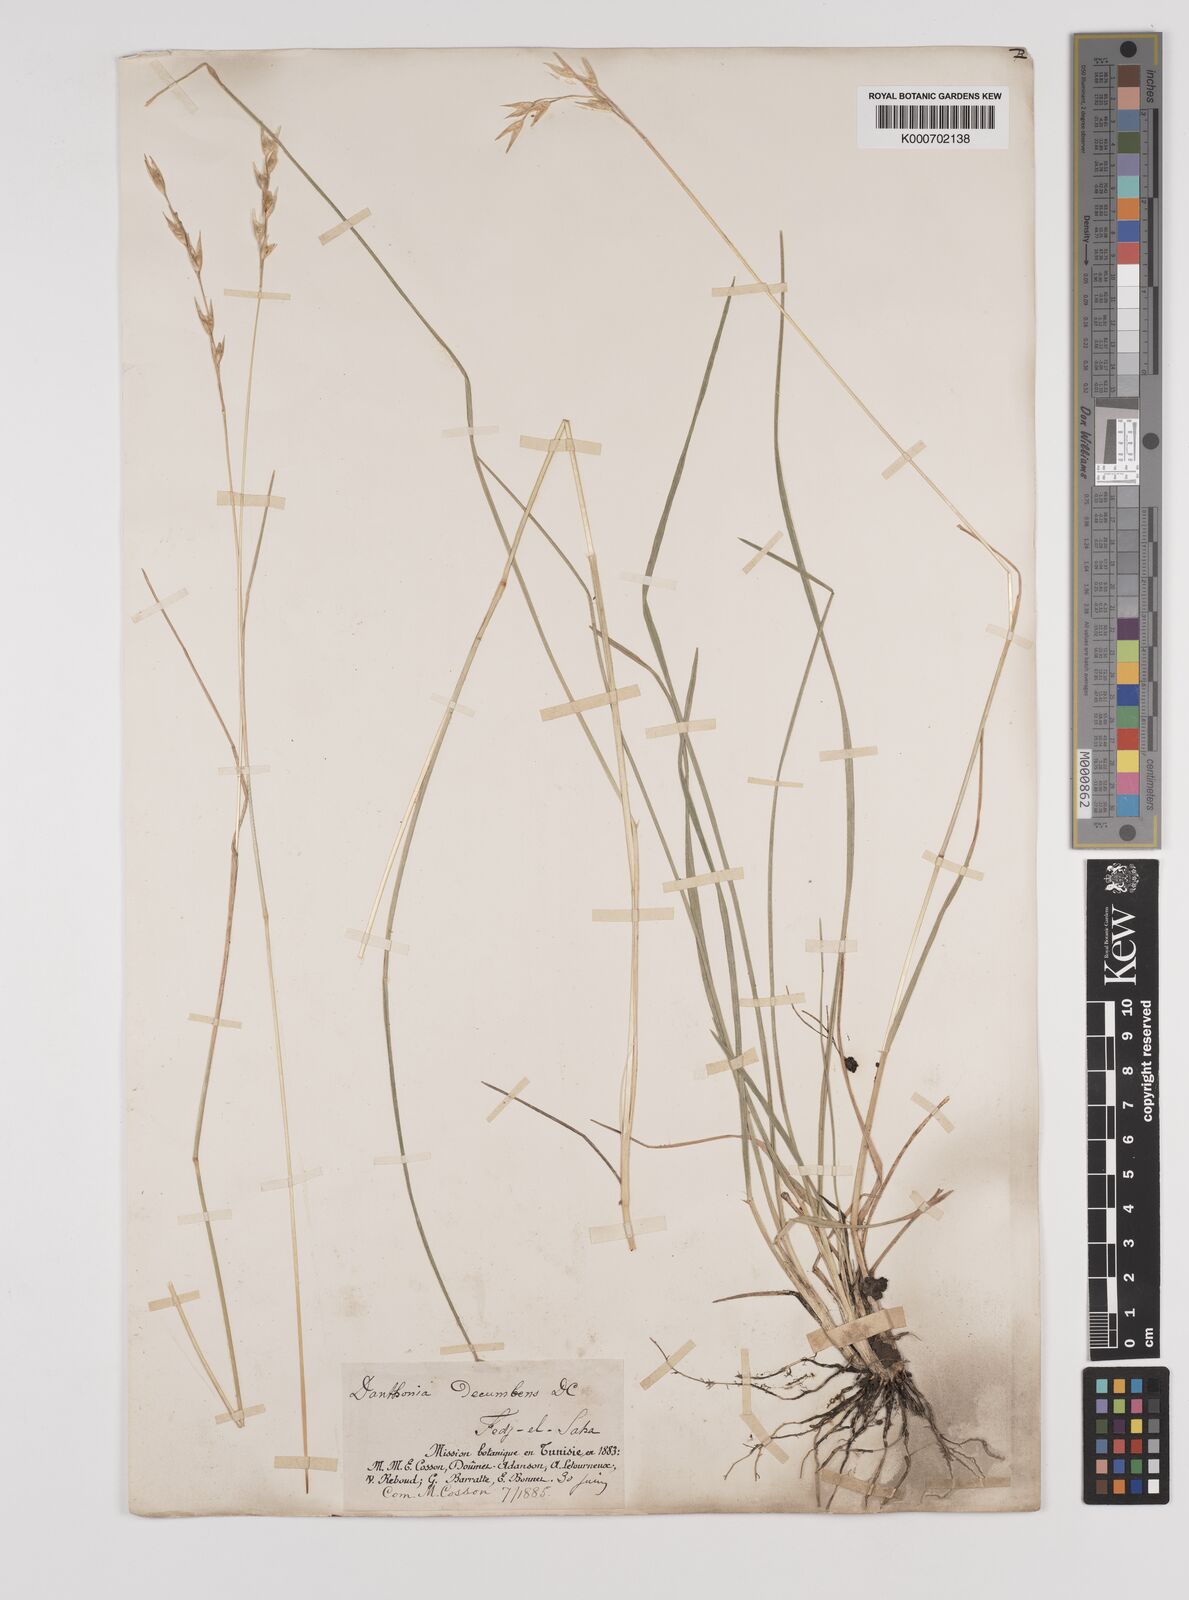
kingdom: Plantae
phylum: Tracheophyta
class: Liliopsida
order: Poales
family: Poaceae
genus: Danthonia
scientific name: Danthonia decumbens
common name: Common heathgrass
